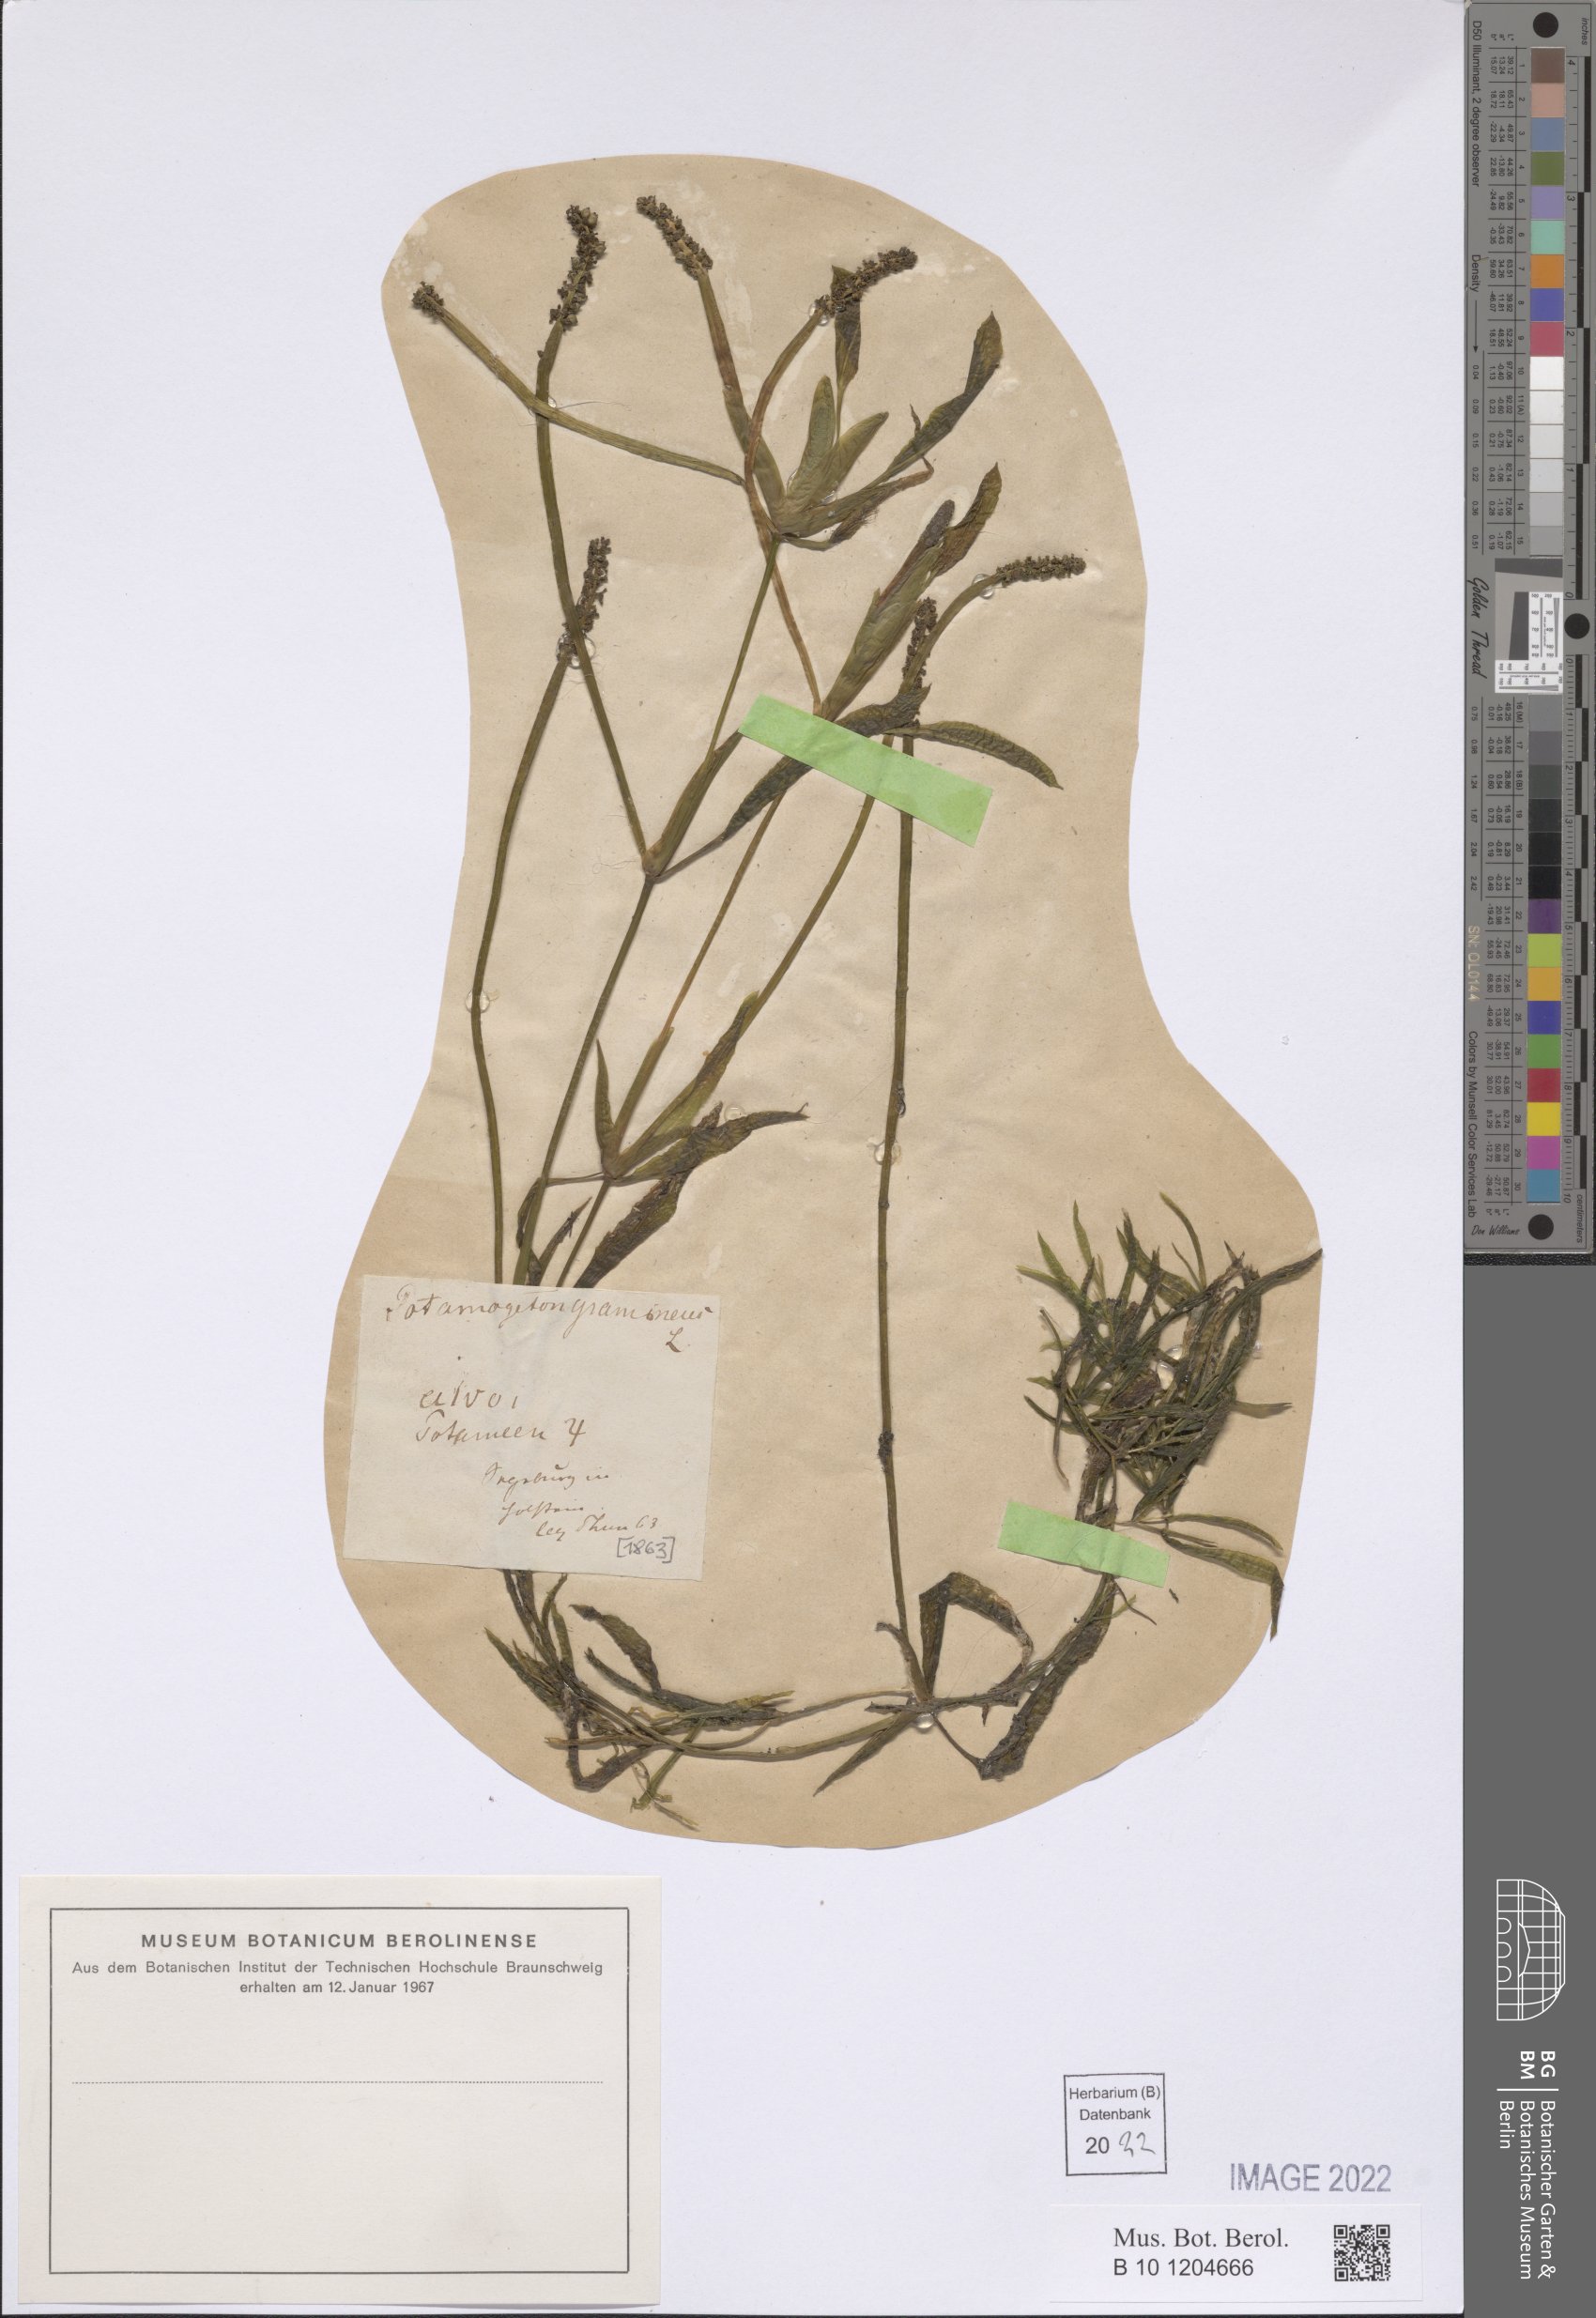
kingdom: Plantae
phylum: Tracheophyta
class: Liliopsida
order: Alismatales
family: Potamogetonaceae
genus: Potamogeton
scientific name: Potamogeton gramineus
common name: Various-leaved pondweed
